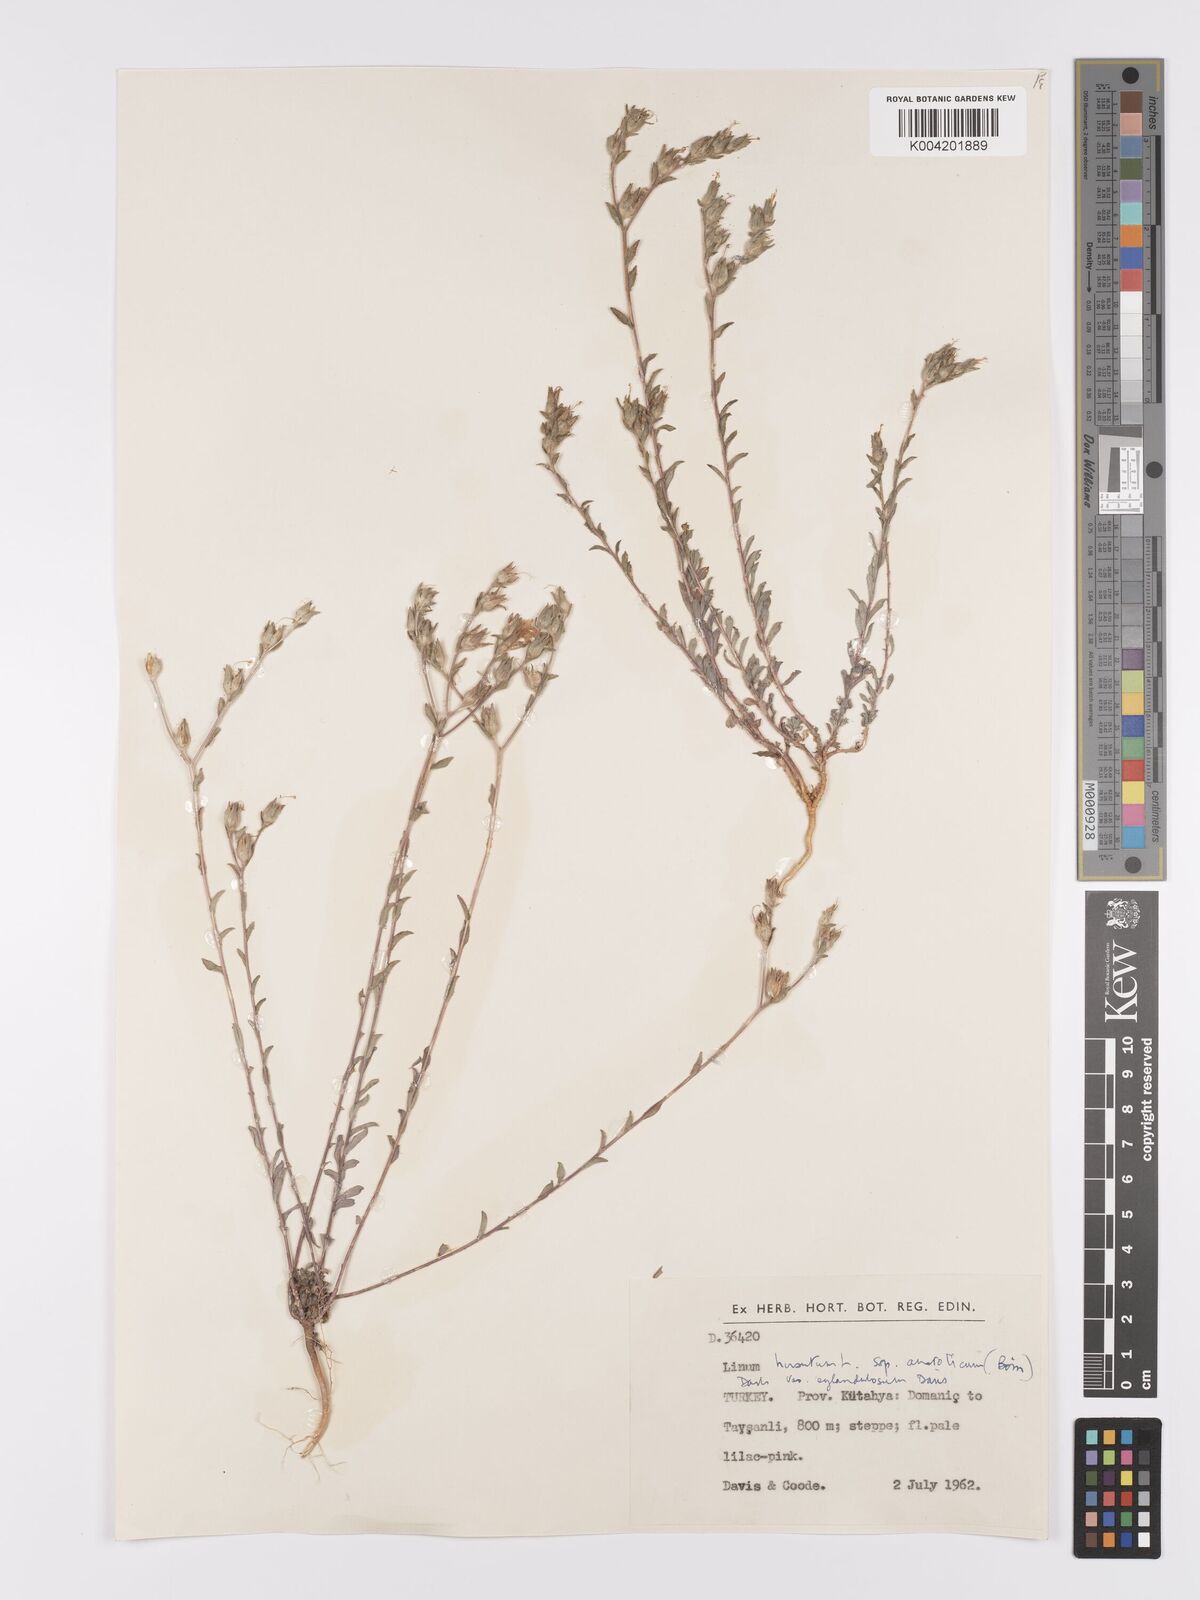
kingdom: Plantae
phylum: Tracheophyta
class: Magnoliopsida
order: Malpighiales
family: Linaceae
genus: Linum
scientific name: Linum
